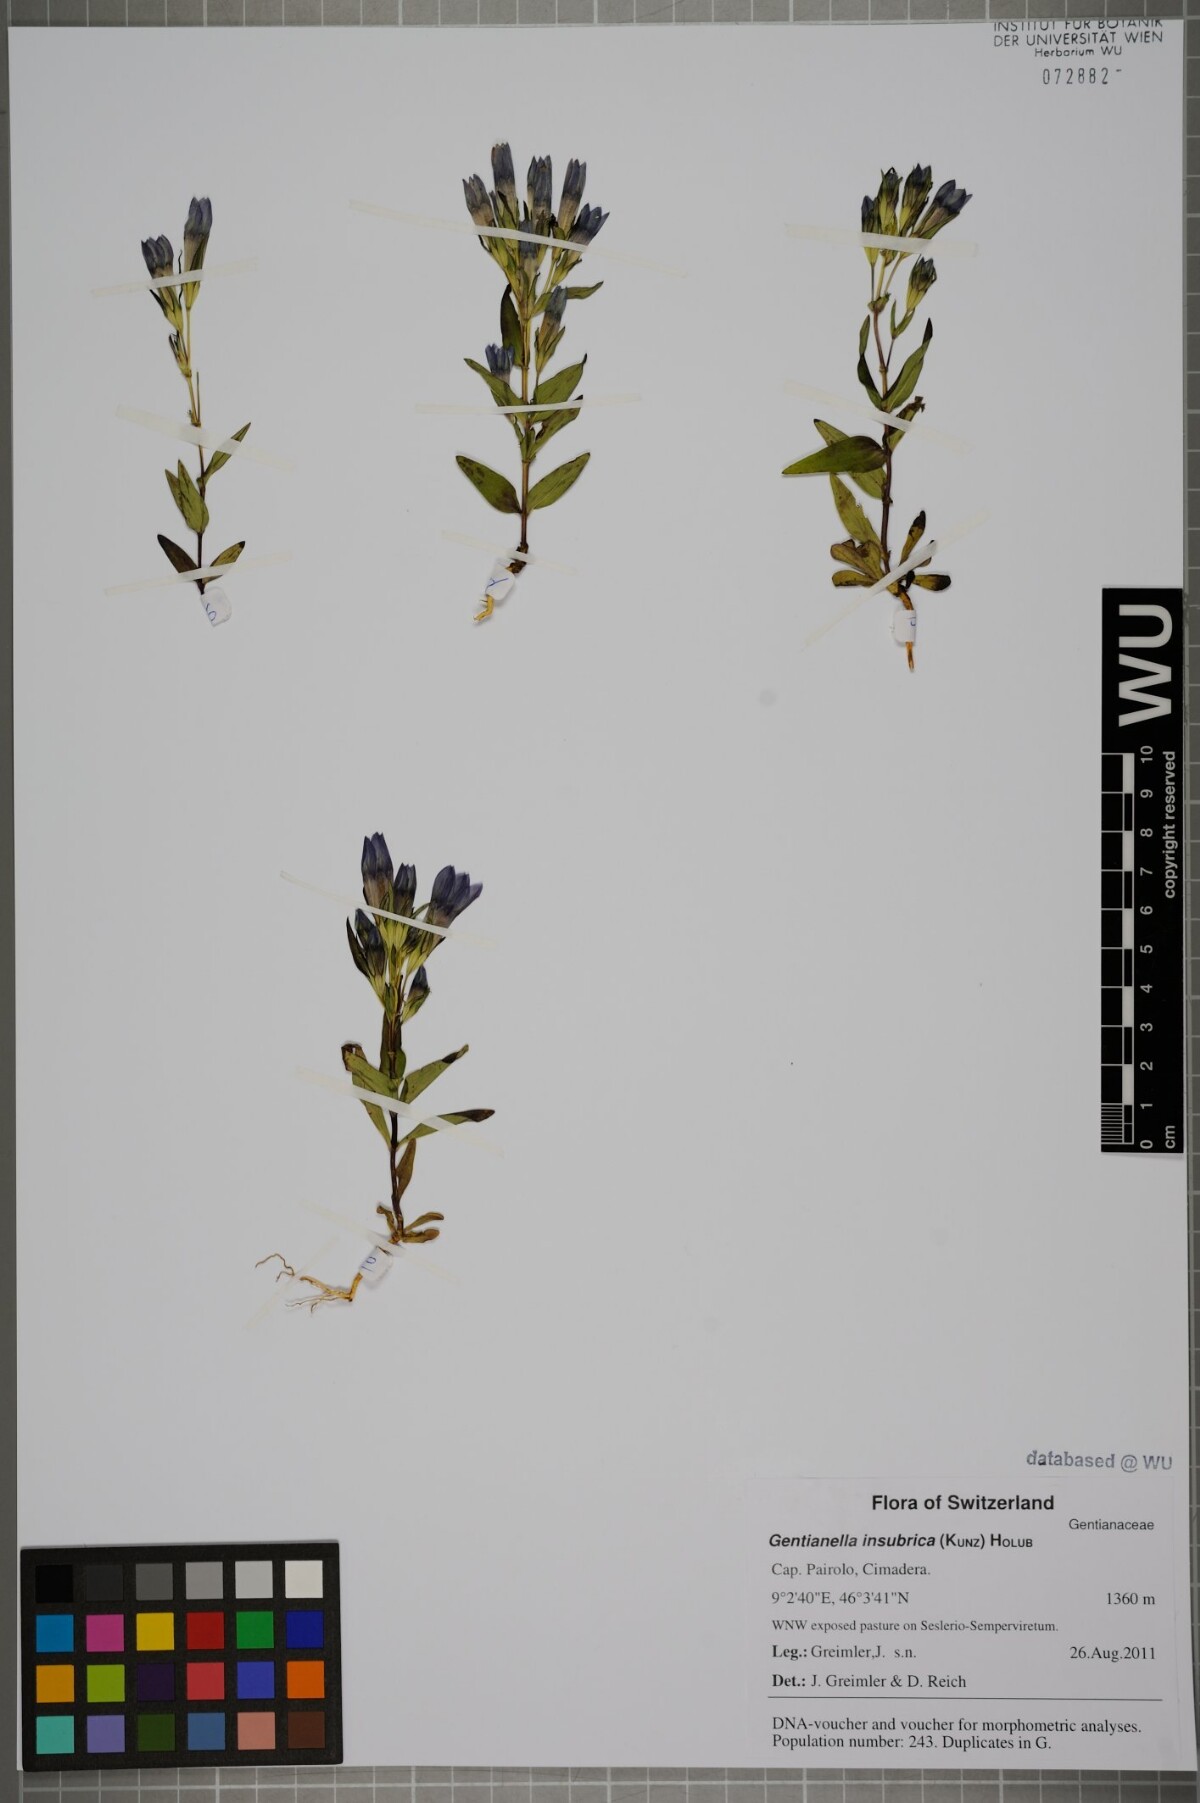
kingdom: Plantae
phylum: Tracheophyta
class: Magnoliopsida
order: Gentianales
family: Gentianaceae
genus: Gentianella
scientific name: Gentianella insubrica
